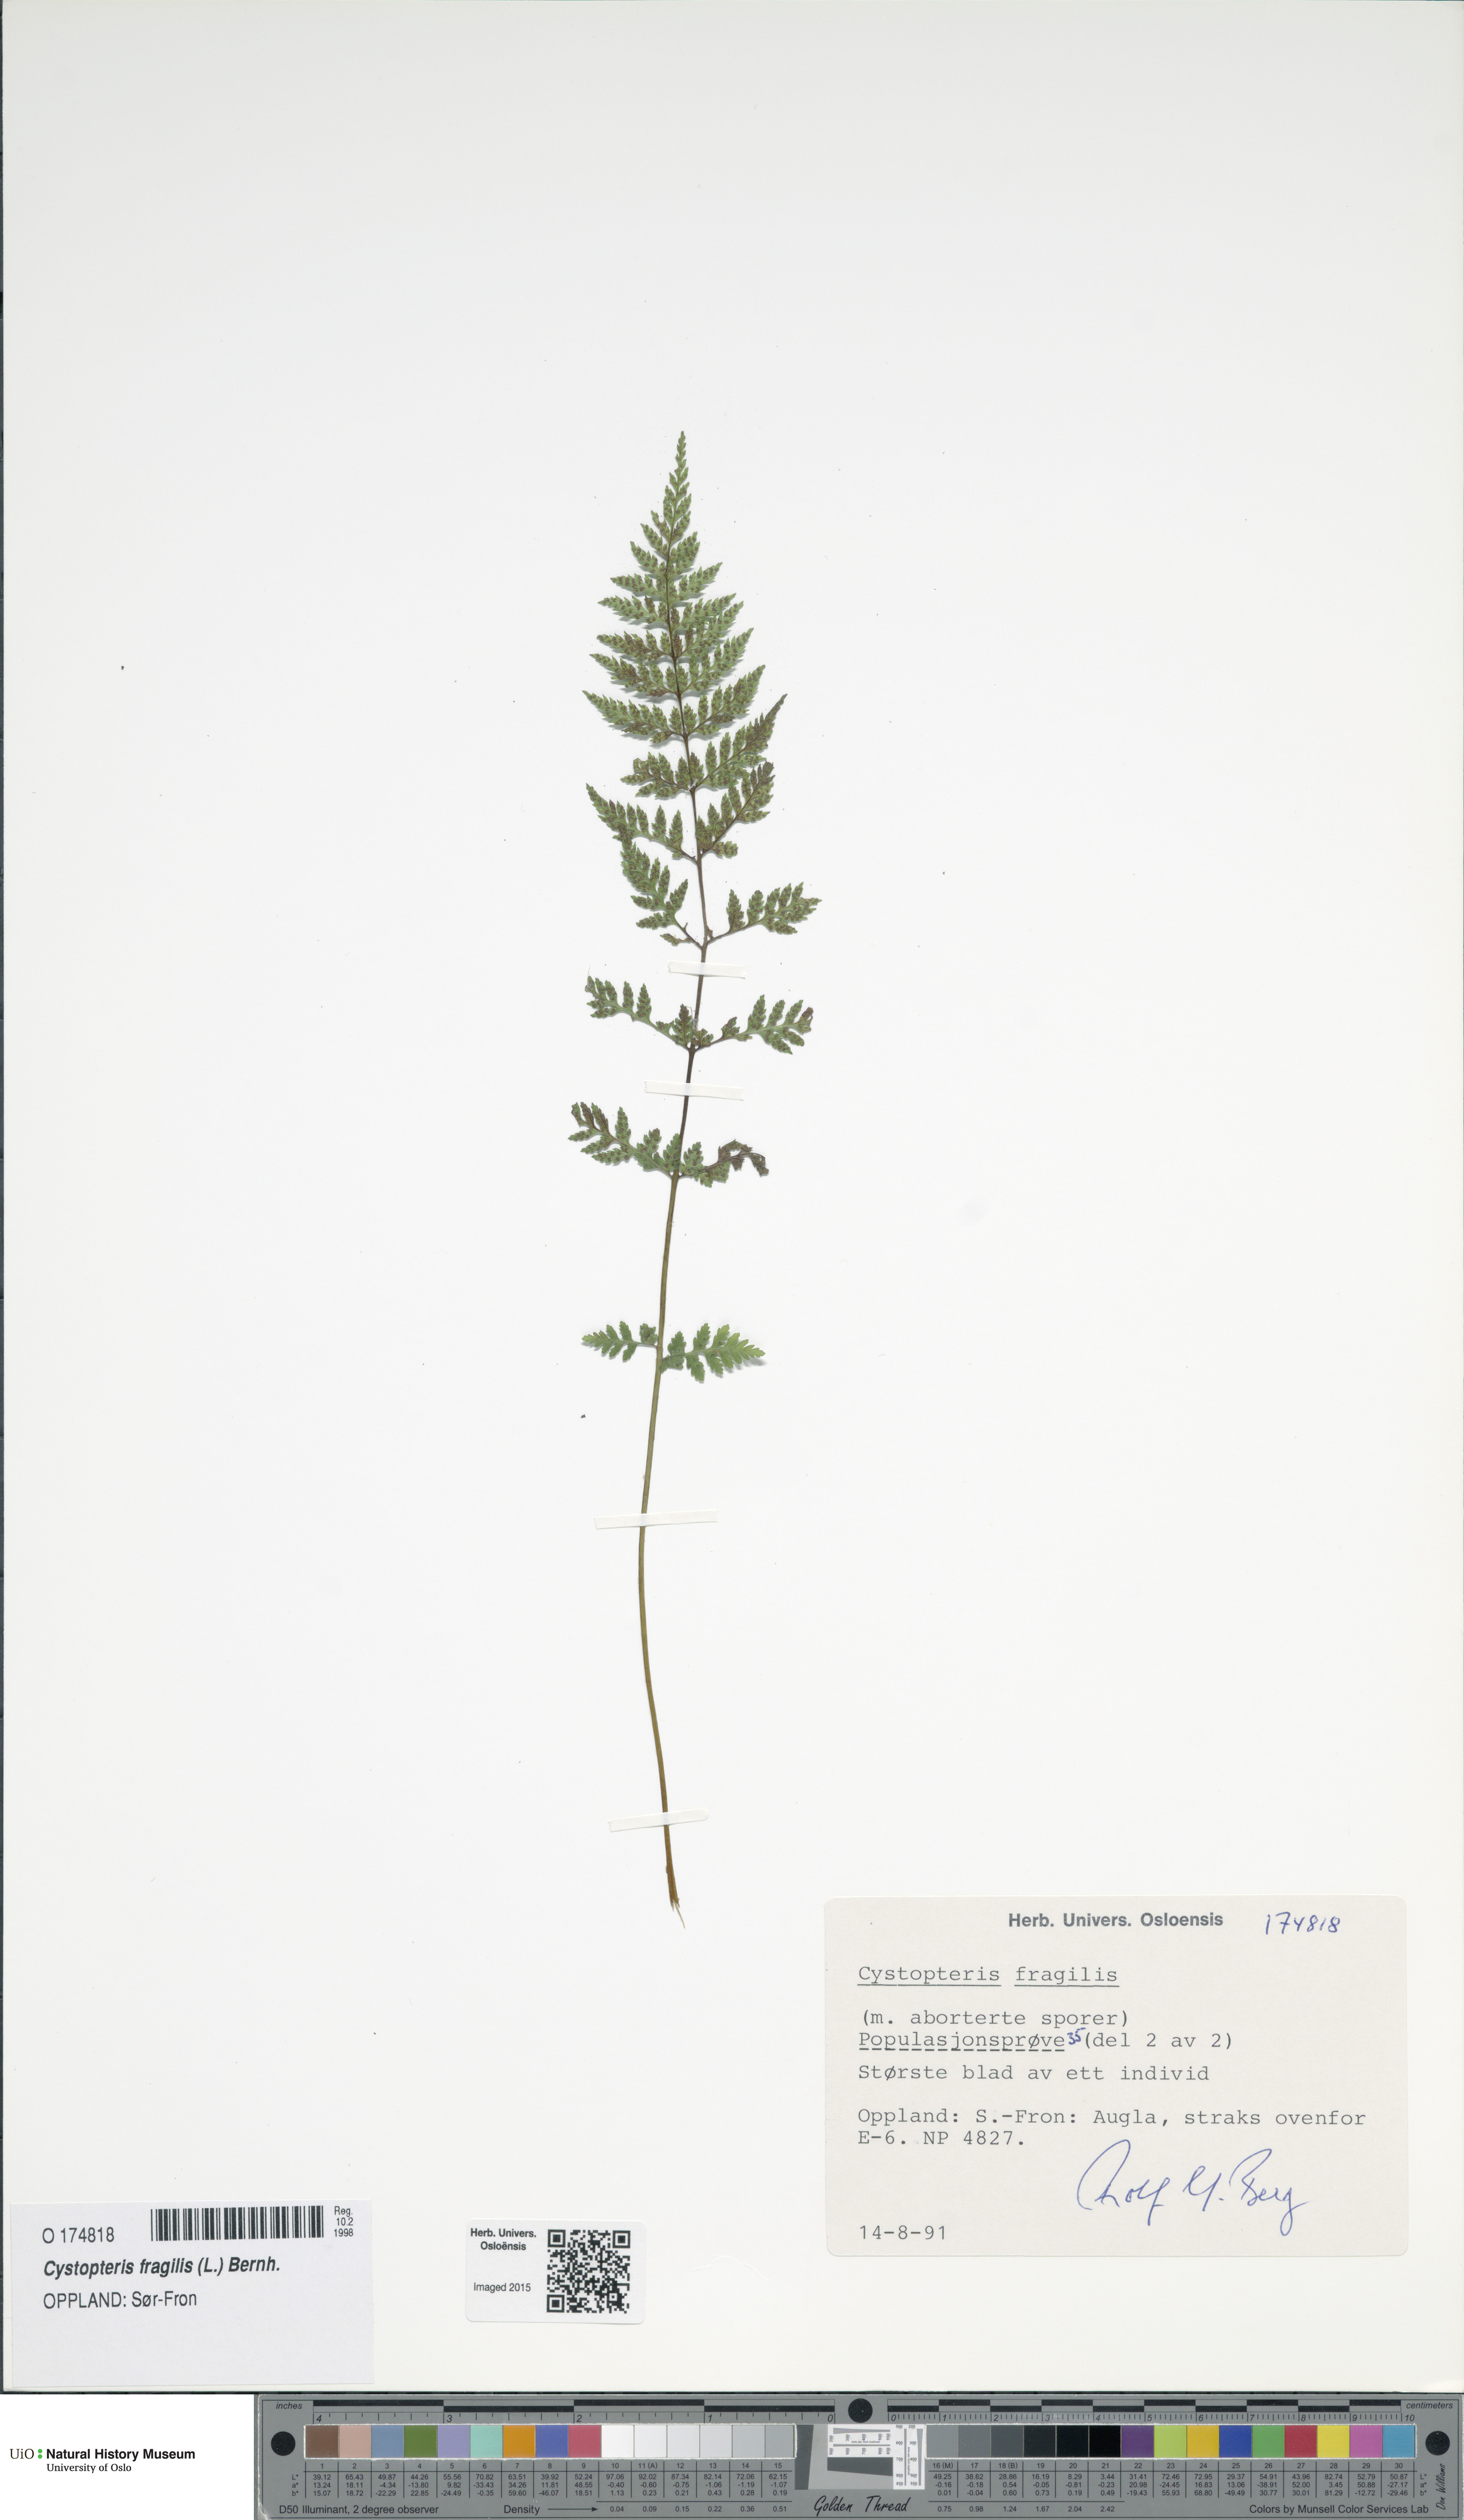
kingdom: Plantae
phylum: Tracheophyta
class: Polypodiopsida
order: Polypodiales
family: Cystopteridaceae
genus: Cystopteris
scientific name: Cystopteris fragilis
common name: Brittle bladder fern
